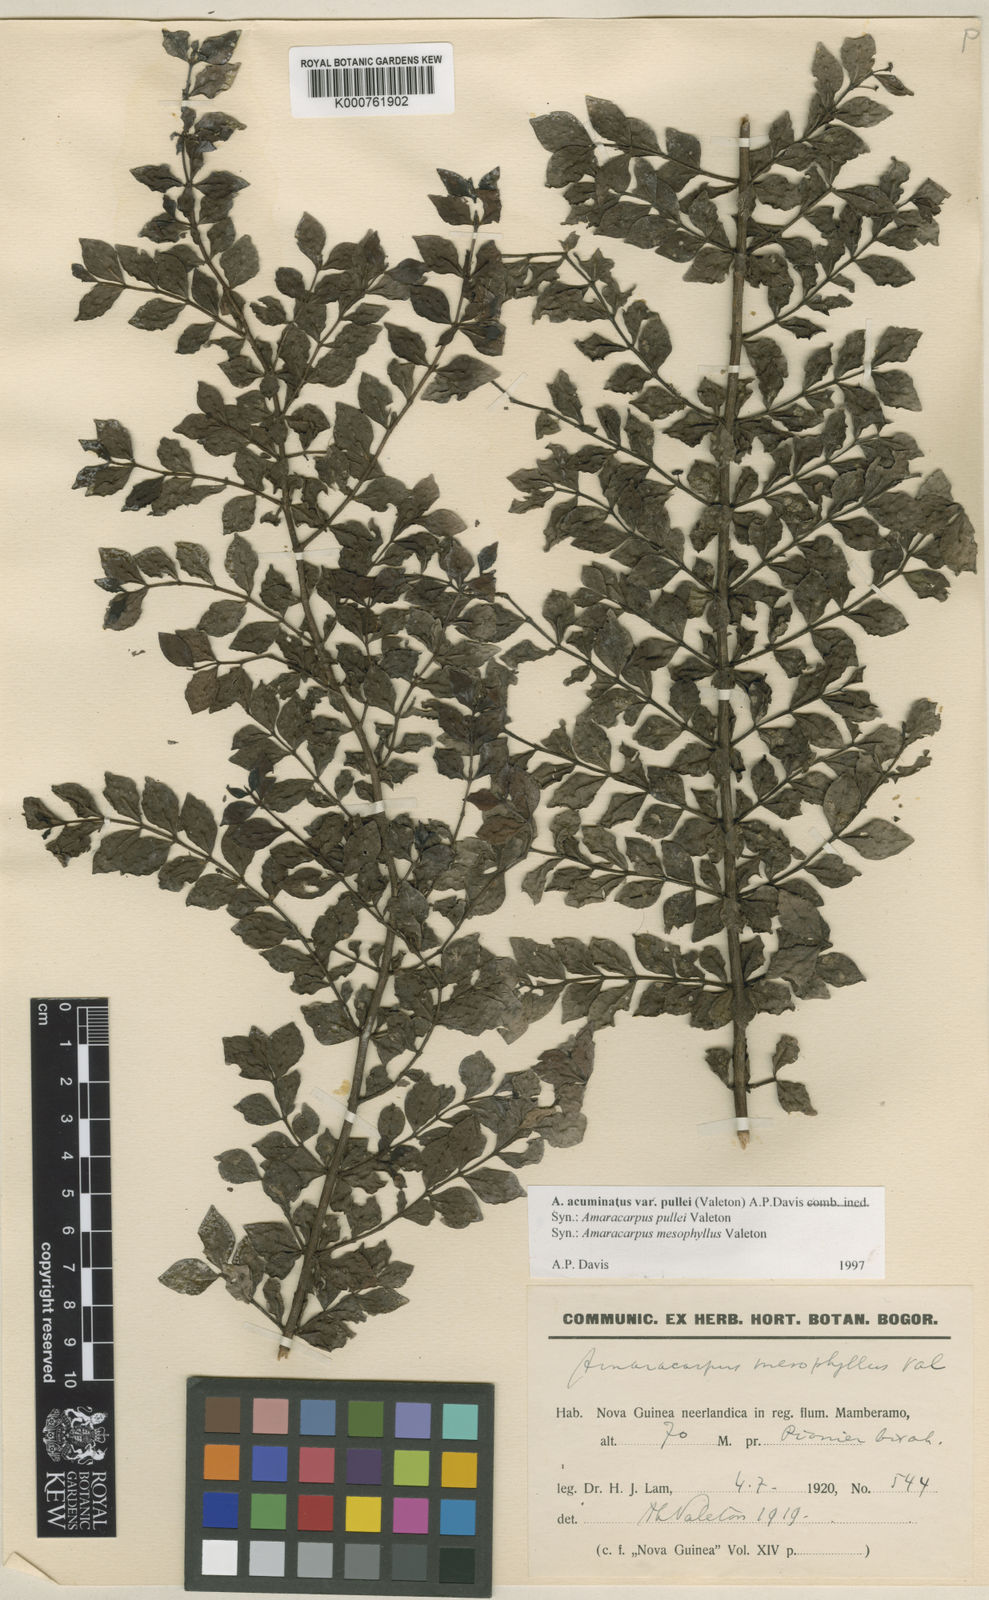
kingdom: Plantae
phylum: Tracheophyta
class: Magnoliopsida
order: Gentianales
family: Rubiaceae
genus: Amaracarpus
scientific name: Amaracarpus acuminatus
